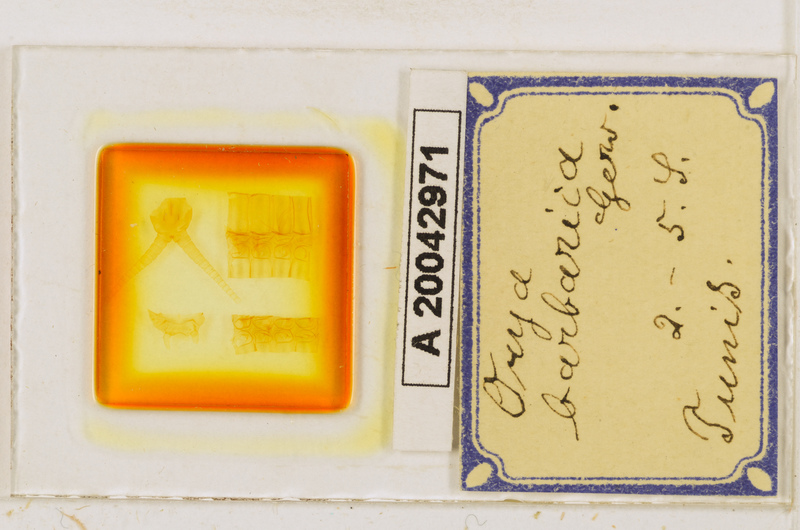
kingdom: Animalia
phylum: Arthropoda
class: Chilopoda
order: Geophilomorpha
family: Oryidae
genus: Orya
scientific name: Orya barbarica
